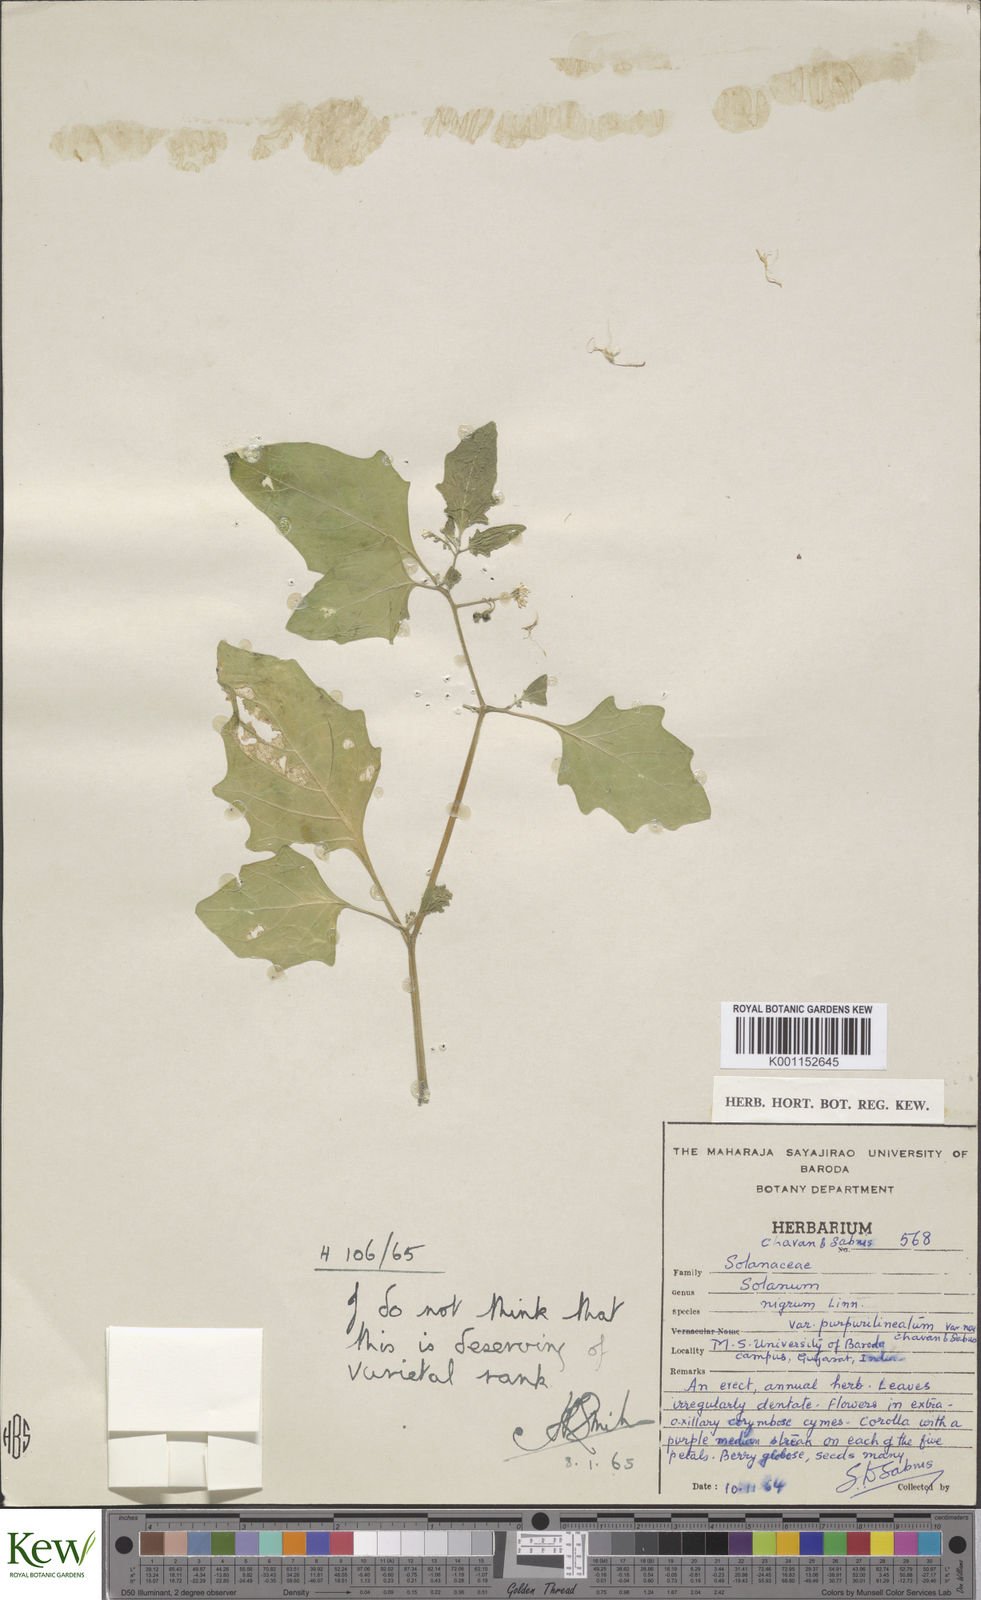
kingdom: Plantae
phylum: Tracheophyta
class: Magnoliopsida
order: Solanales
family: Solanaceae
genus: Solanum
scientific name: Solanum nigrum
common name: Black nightshade
